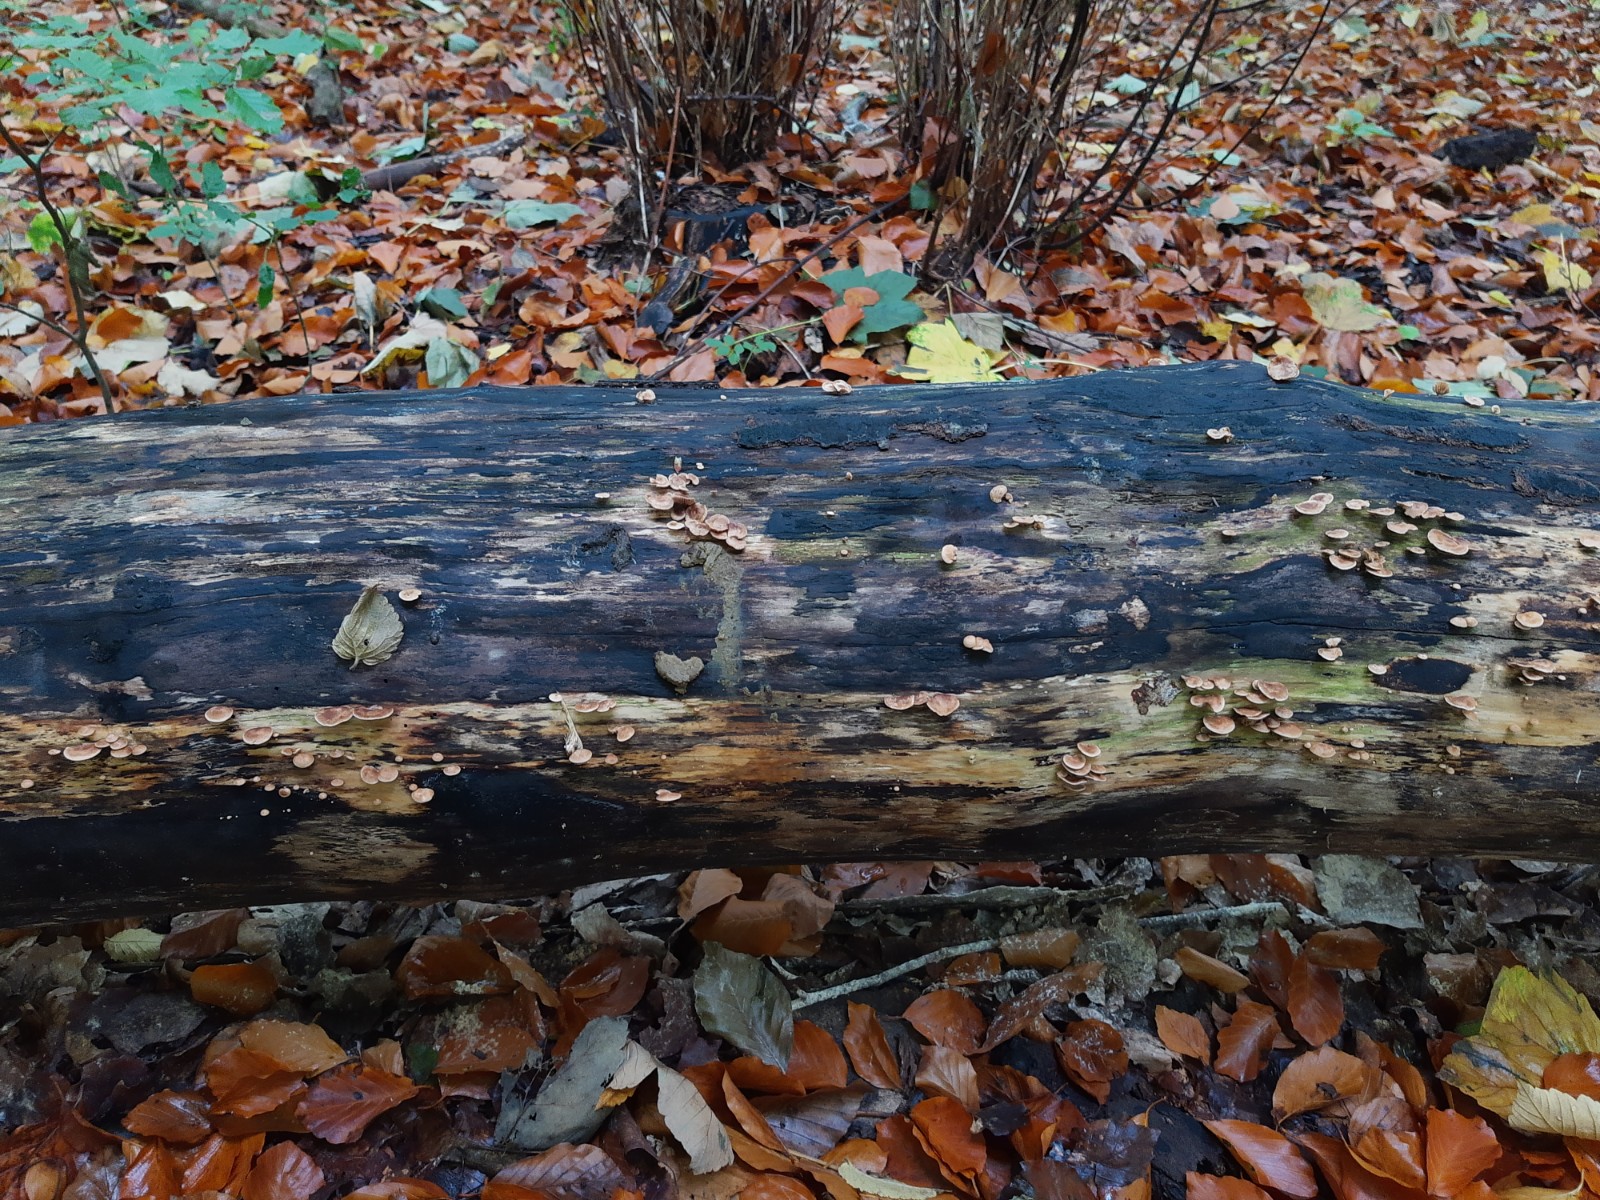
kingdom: Fungi
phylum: Basidiomycota
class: Agaricomycetes
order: Agaricales
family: Strophariaceae
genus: Deconica
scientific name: Deconica horizontalis
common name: ved-stråhat
